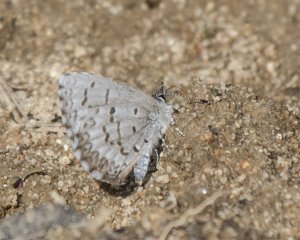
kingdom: Animalia
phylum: Arthropoda
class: Insecta
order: Lepidoptera
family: Lycaenidae
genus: Celastrina
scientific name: Celastrina lucia
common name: Northern Spring Azure
